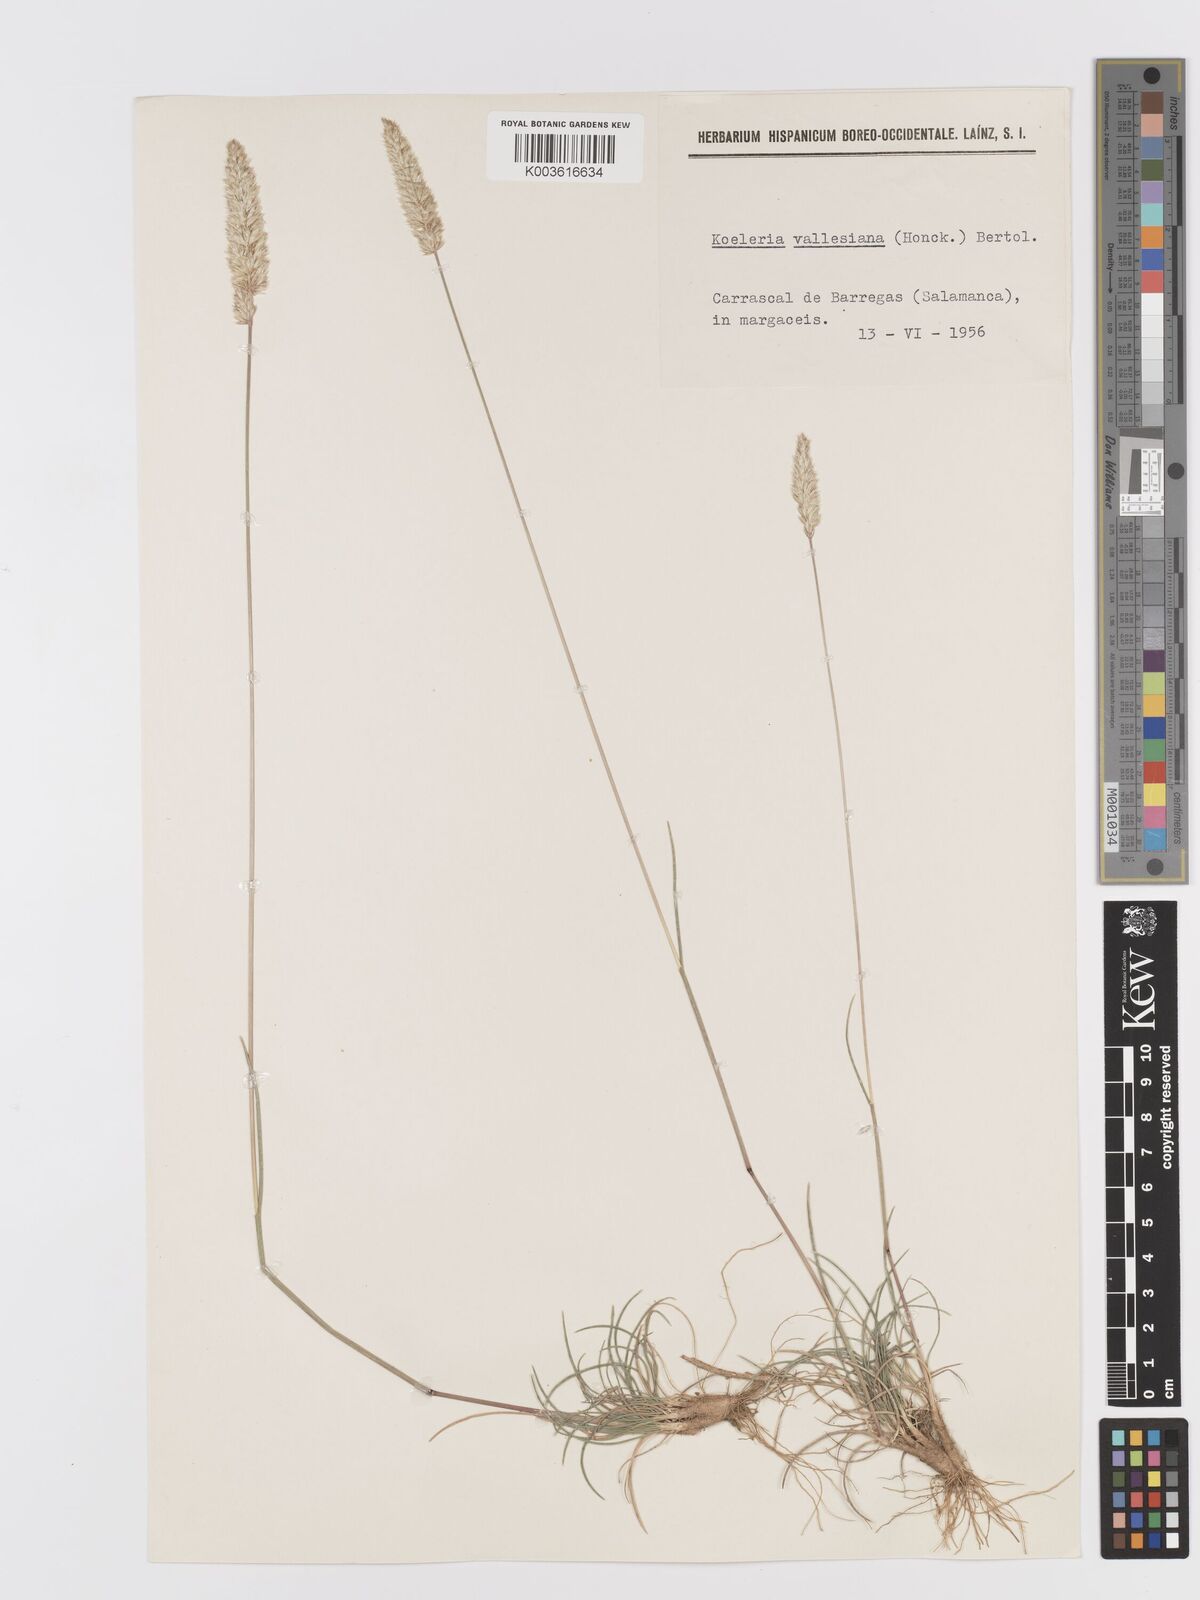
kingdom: Plantae
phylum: Tracheophyta
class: Liliopsida
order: Poales
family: Poaceae
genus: Koeleria
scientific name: Koeleria vallesiana
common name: Somerset hair-grass
